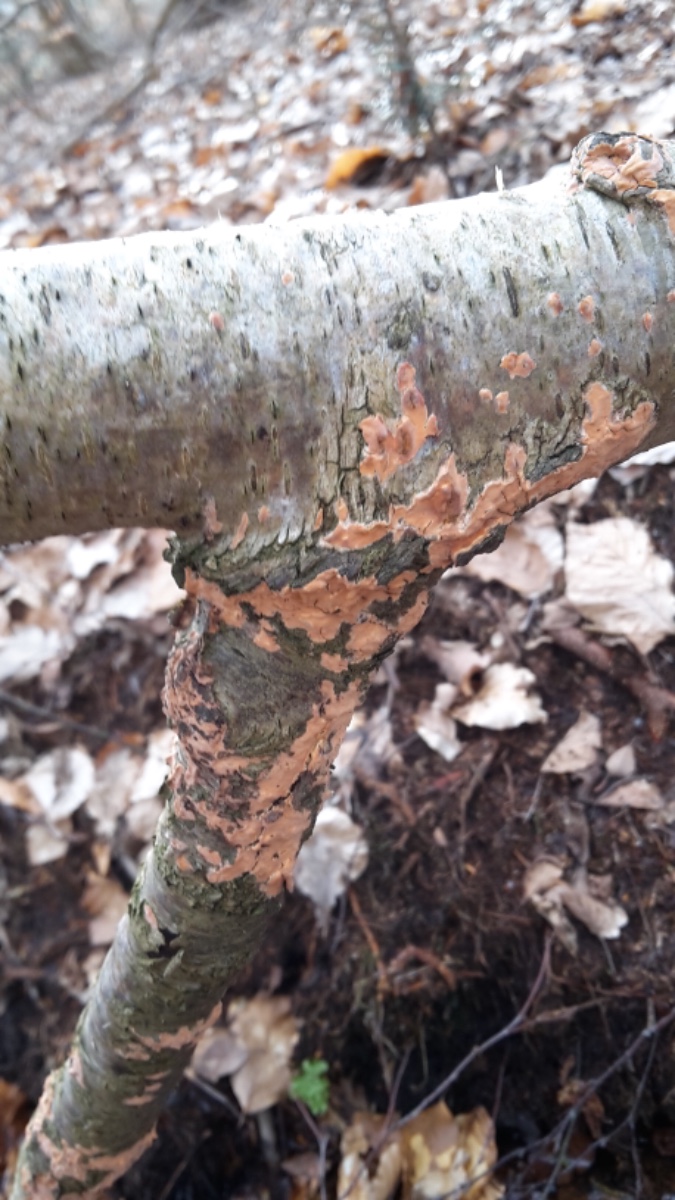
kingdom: Fungi
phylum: Basidiomycota
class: Agaricomycetes
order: Russulales
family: Peniophoraceae
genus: Peniophora
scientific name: Peniophora incarnata
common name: laksefarvet voksskind
